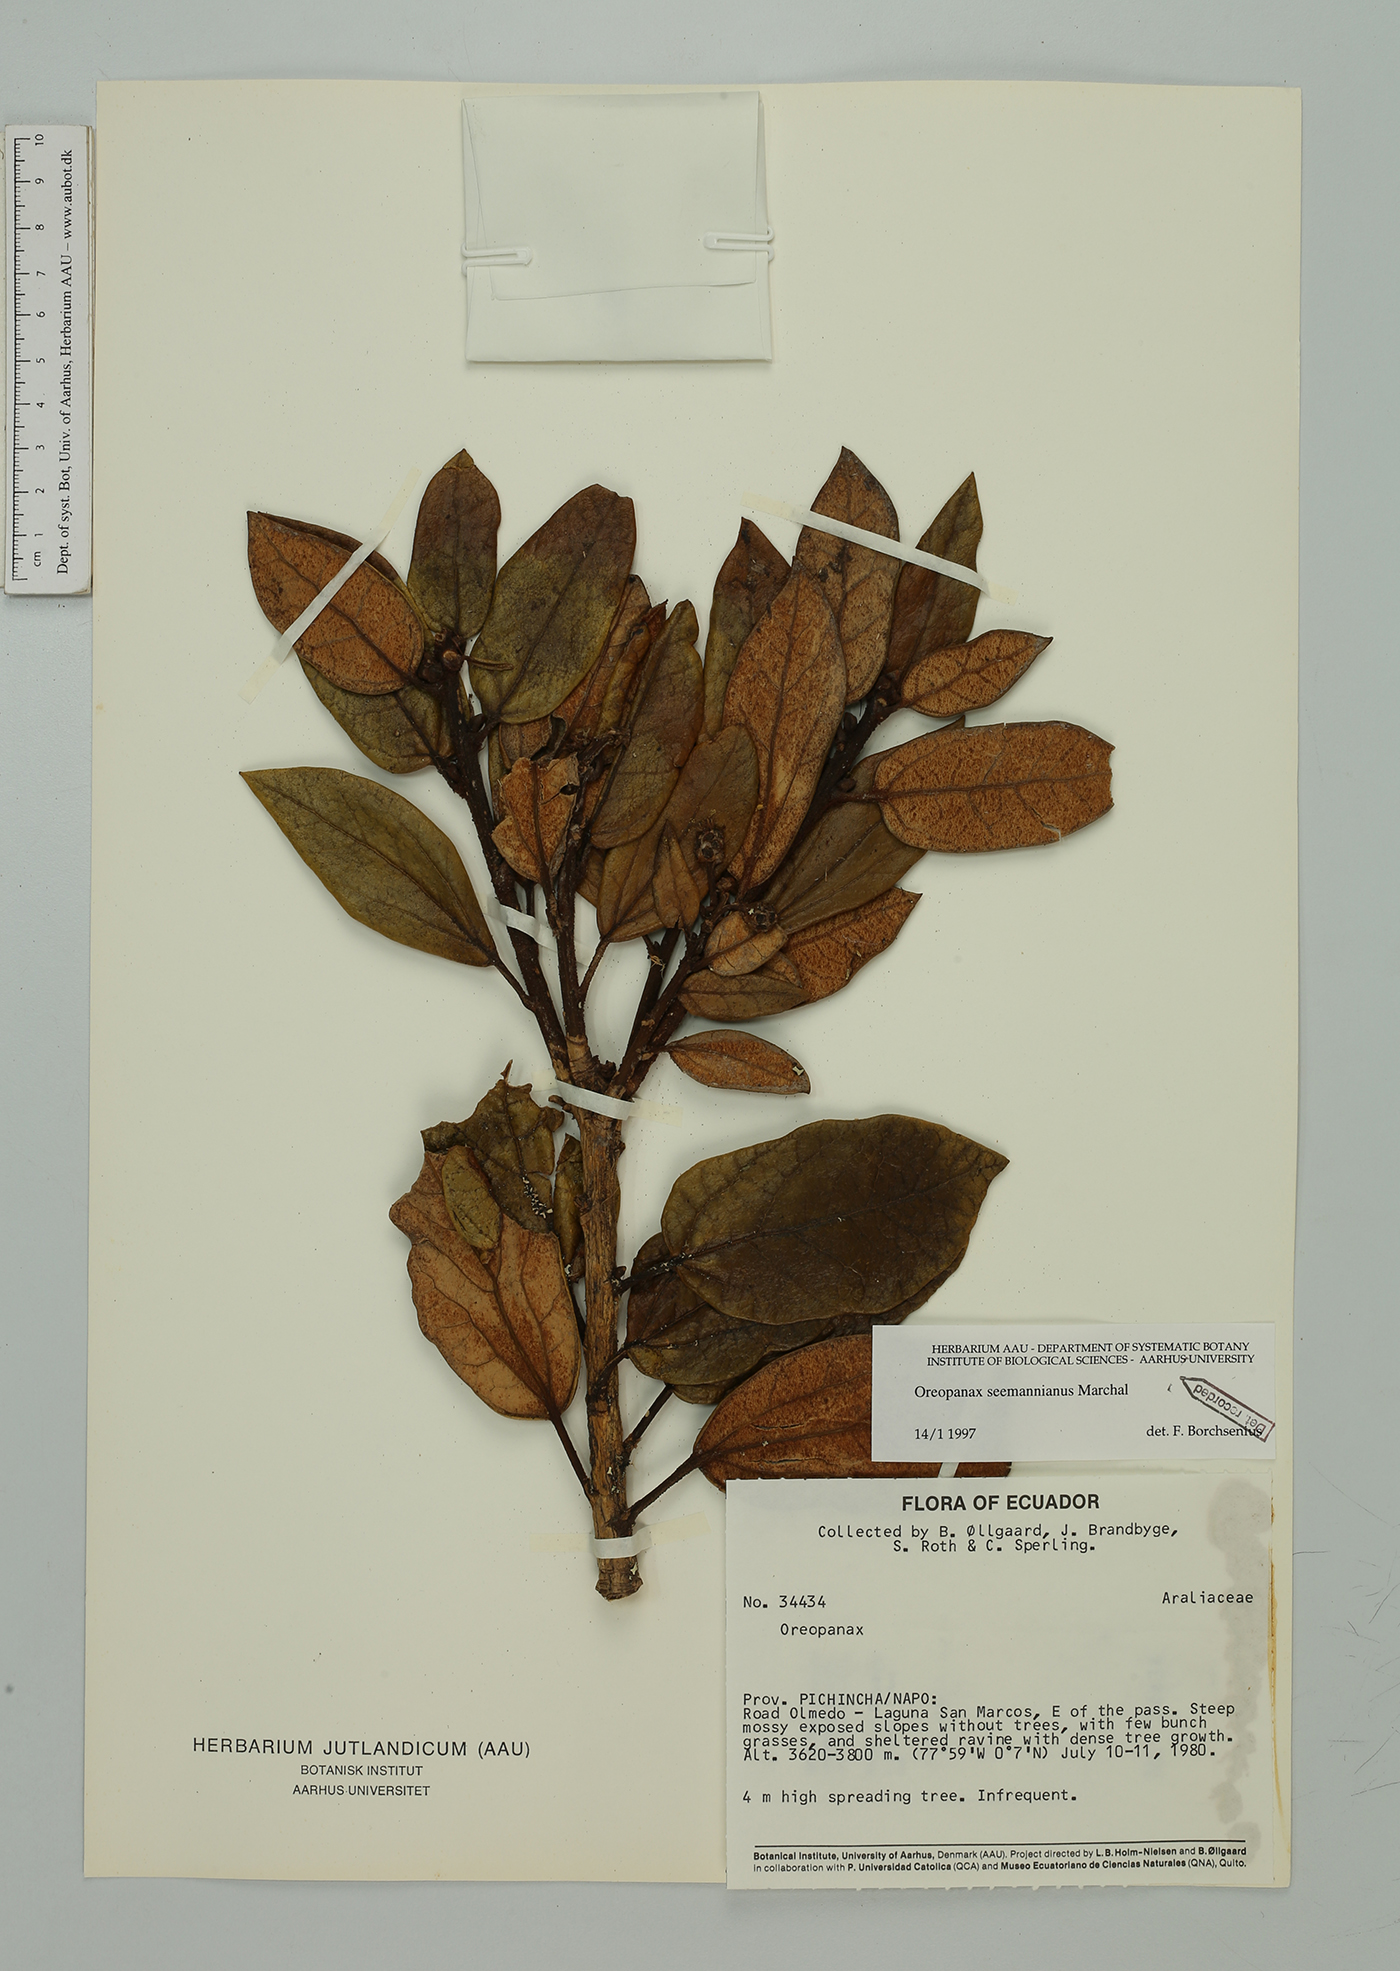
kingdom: Plantae
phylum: Tracheophyta
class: Magnoliopsida
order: Apiales
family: Araliaceae
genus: Oreopanax
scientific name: Oreopanax seemannianus
